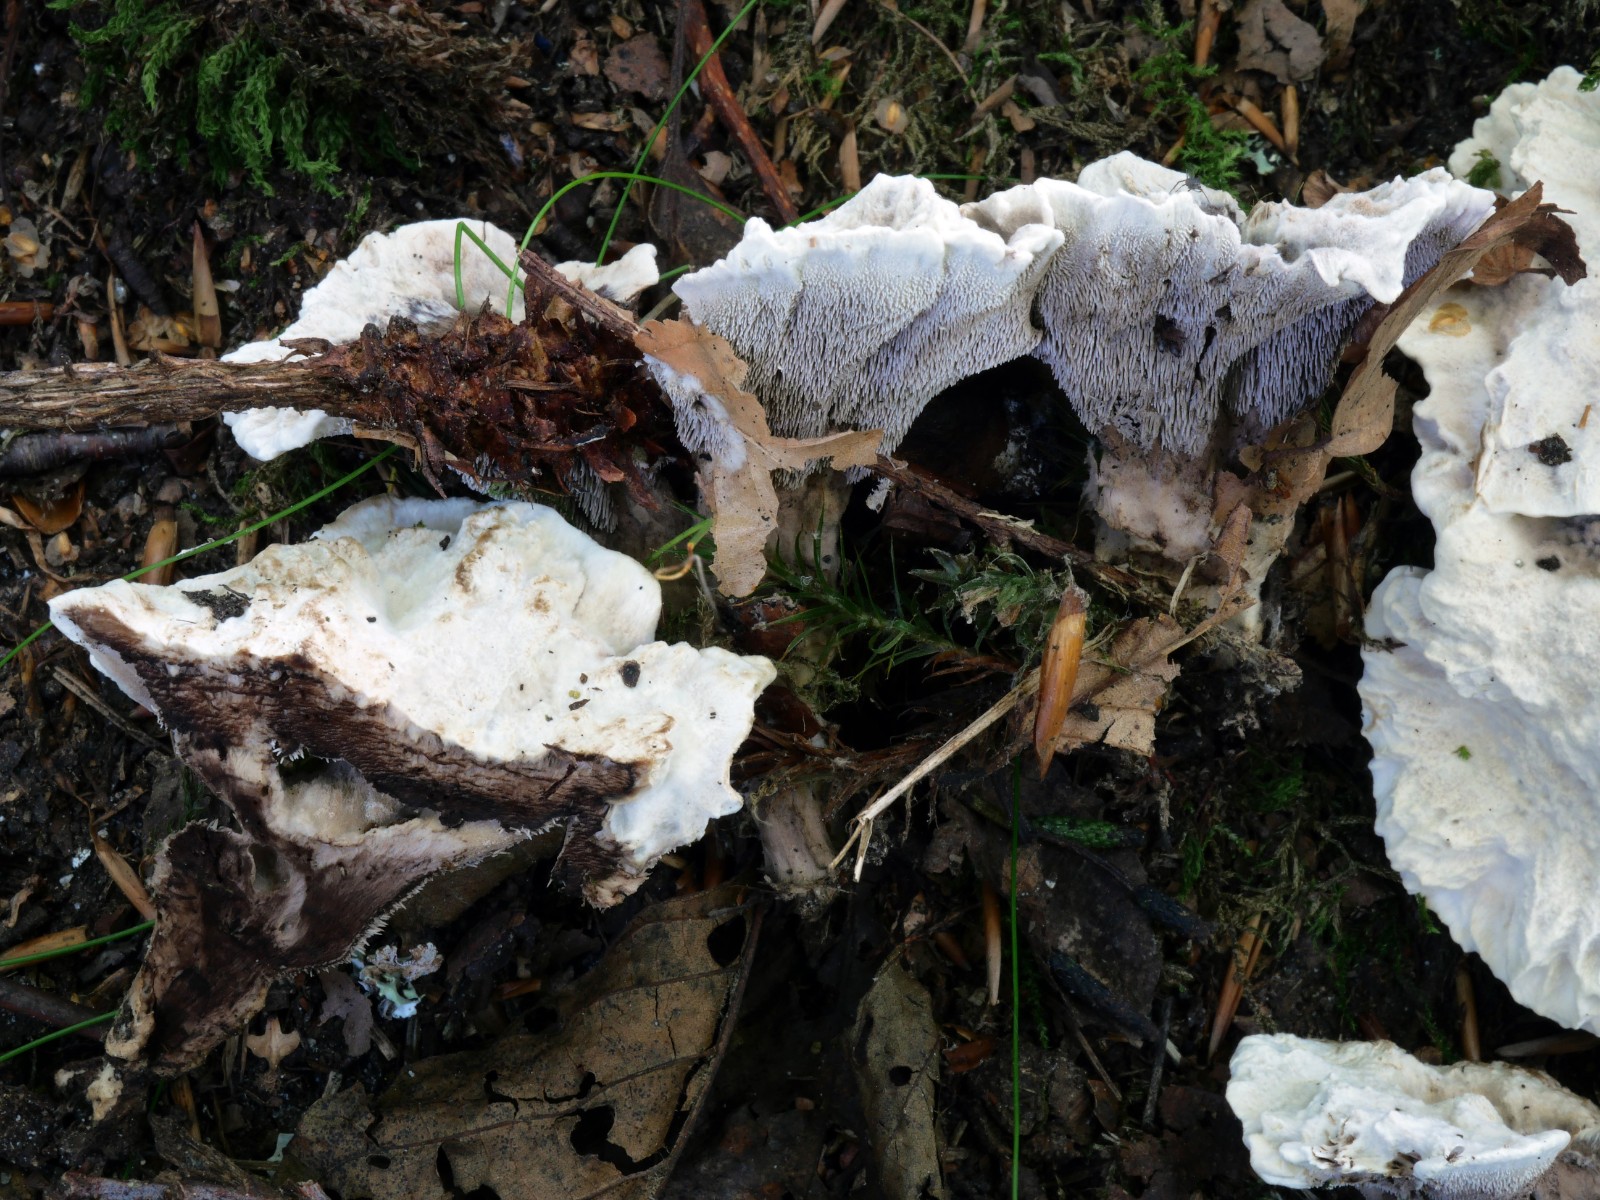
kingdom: Fungi
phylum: Basidiomycota
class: Agaricomycetes
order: Thelephorales
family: Thelephoraceae
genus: Phellodon
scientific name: Phellodon confluens
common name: pjaltet duftpigsvamp
